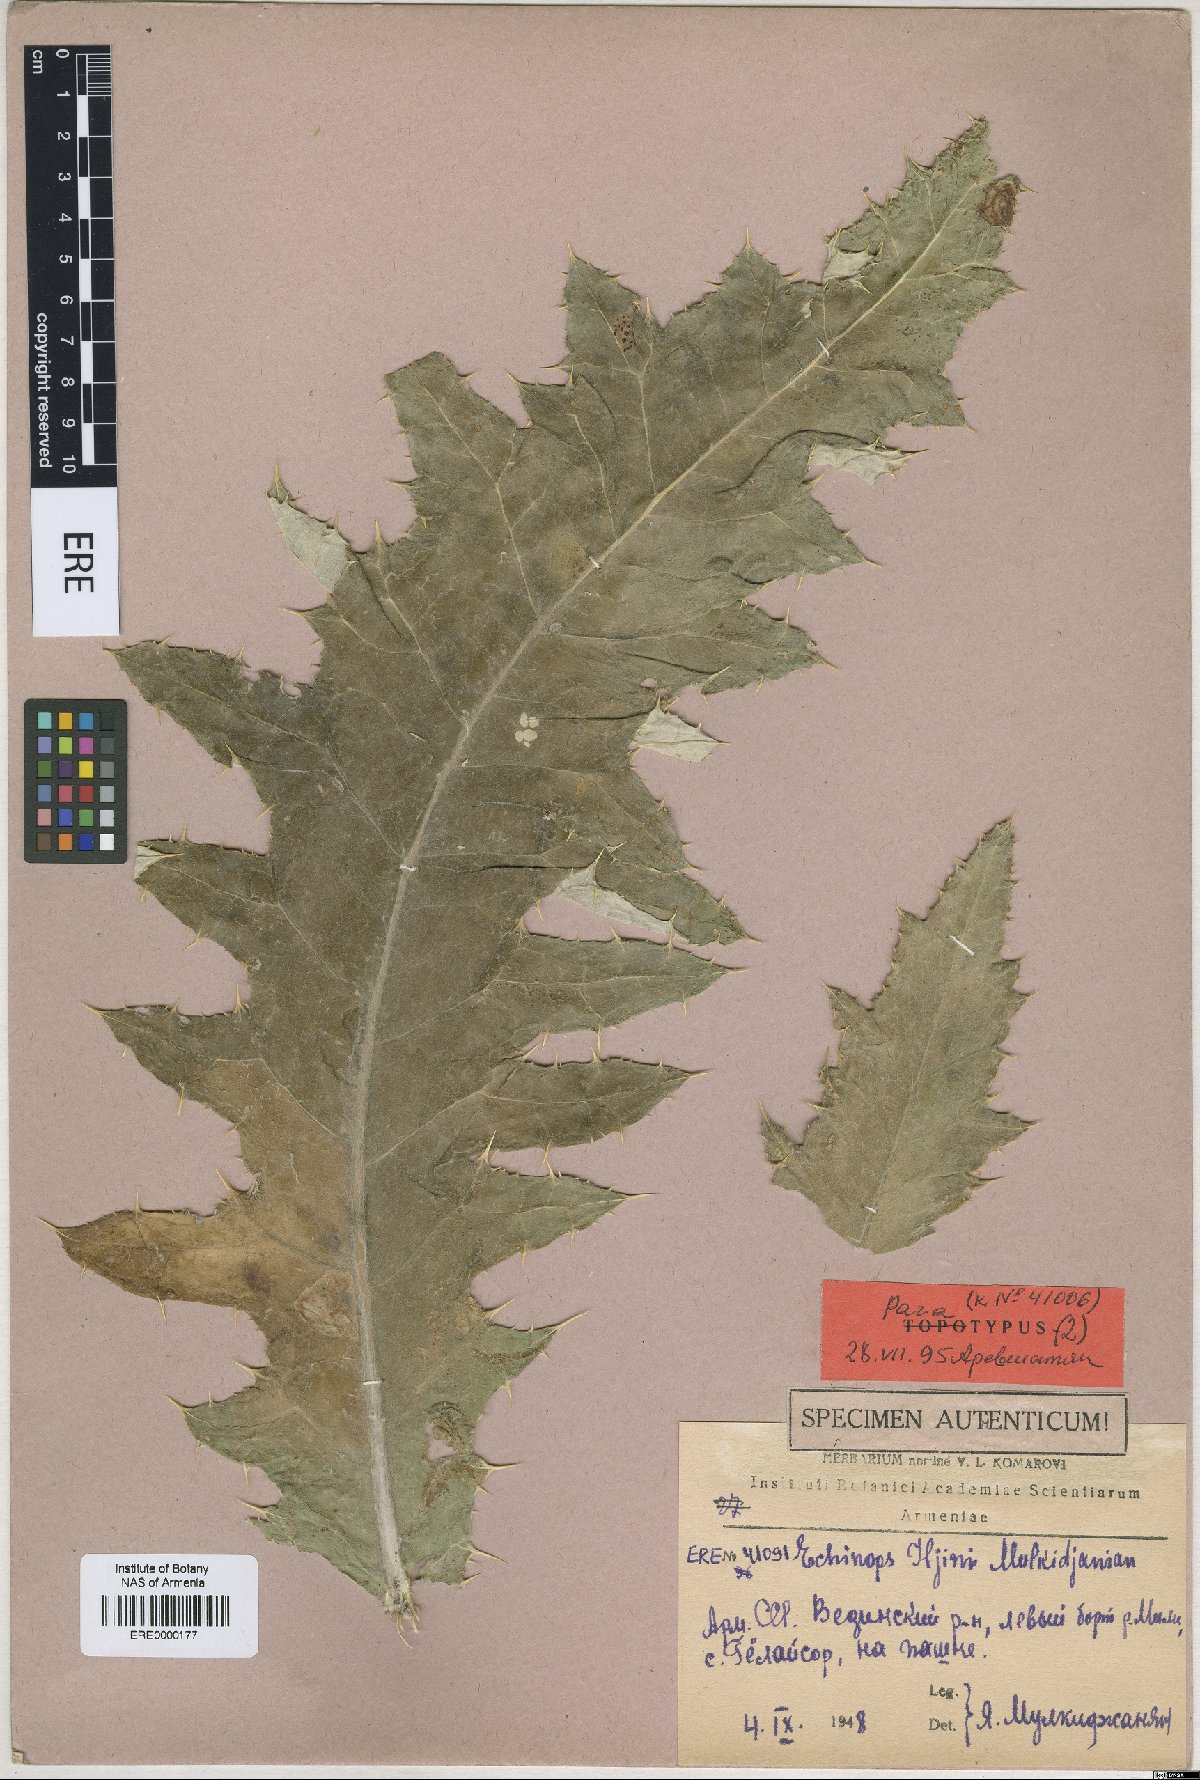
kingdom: Plantae
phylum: Tracheophyta
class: Magnoliopsida
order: Asterales
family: Asteraceae
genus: Echinops
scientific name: Echinops transcaucasicus
